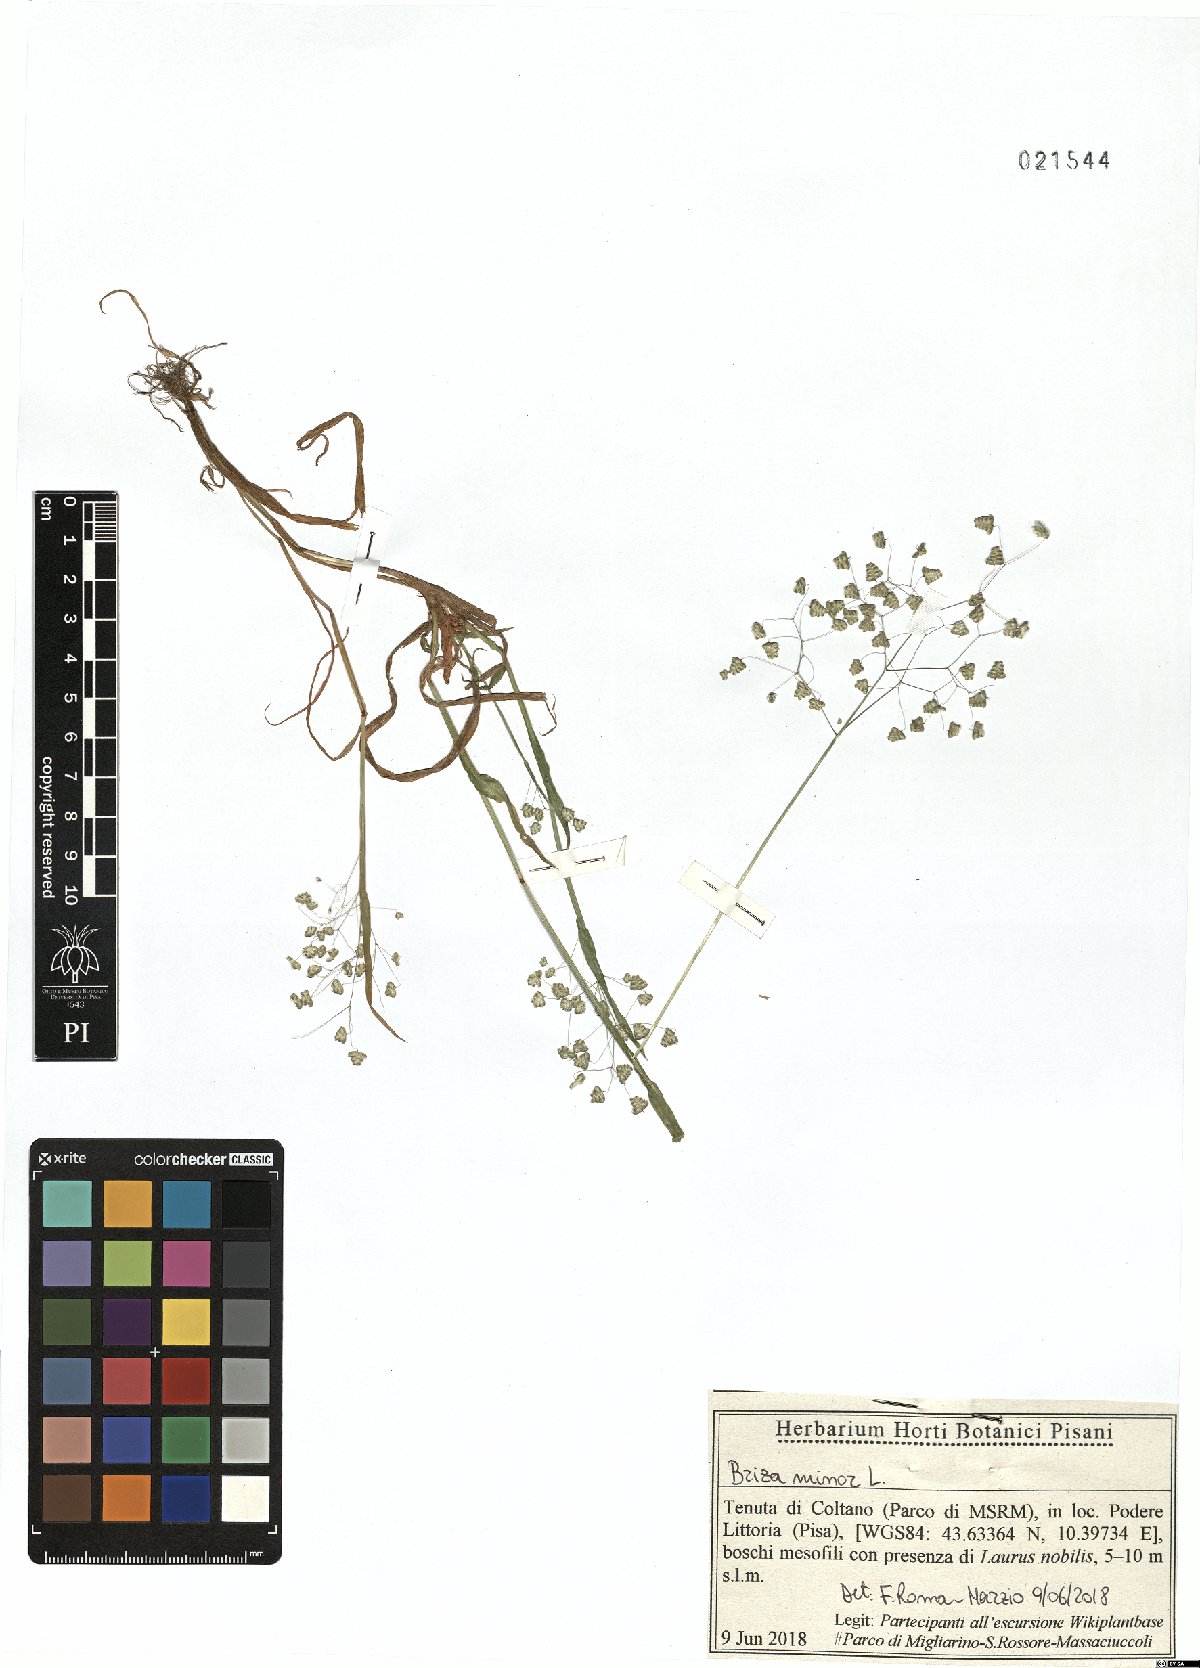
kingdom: Plantae
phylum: Tracheophyta
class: Liliopsida
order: Poales
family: Poaceae
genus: Briza
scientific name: Briza minor
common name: Lesser quaking-grass
